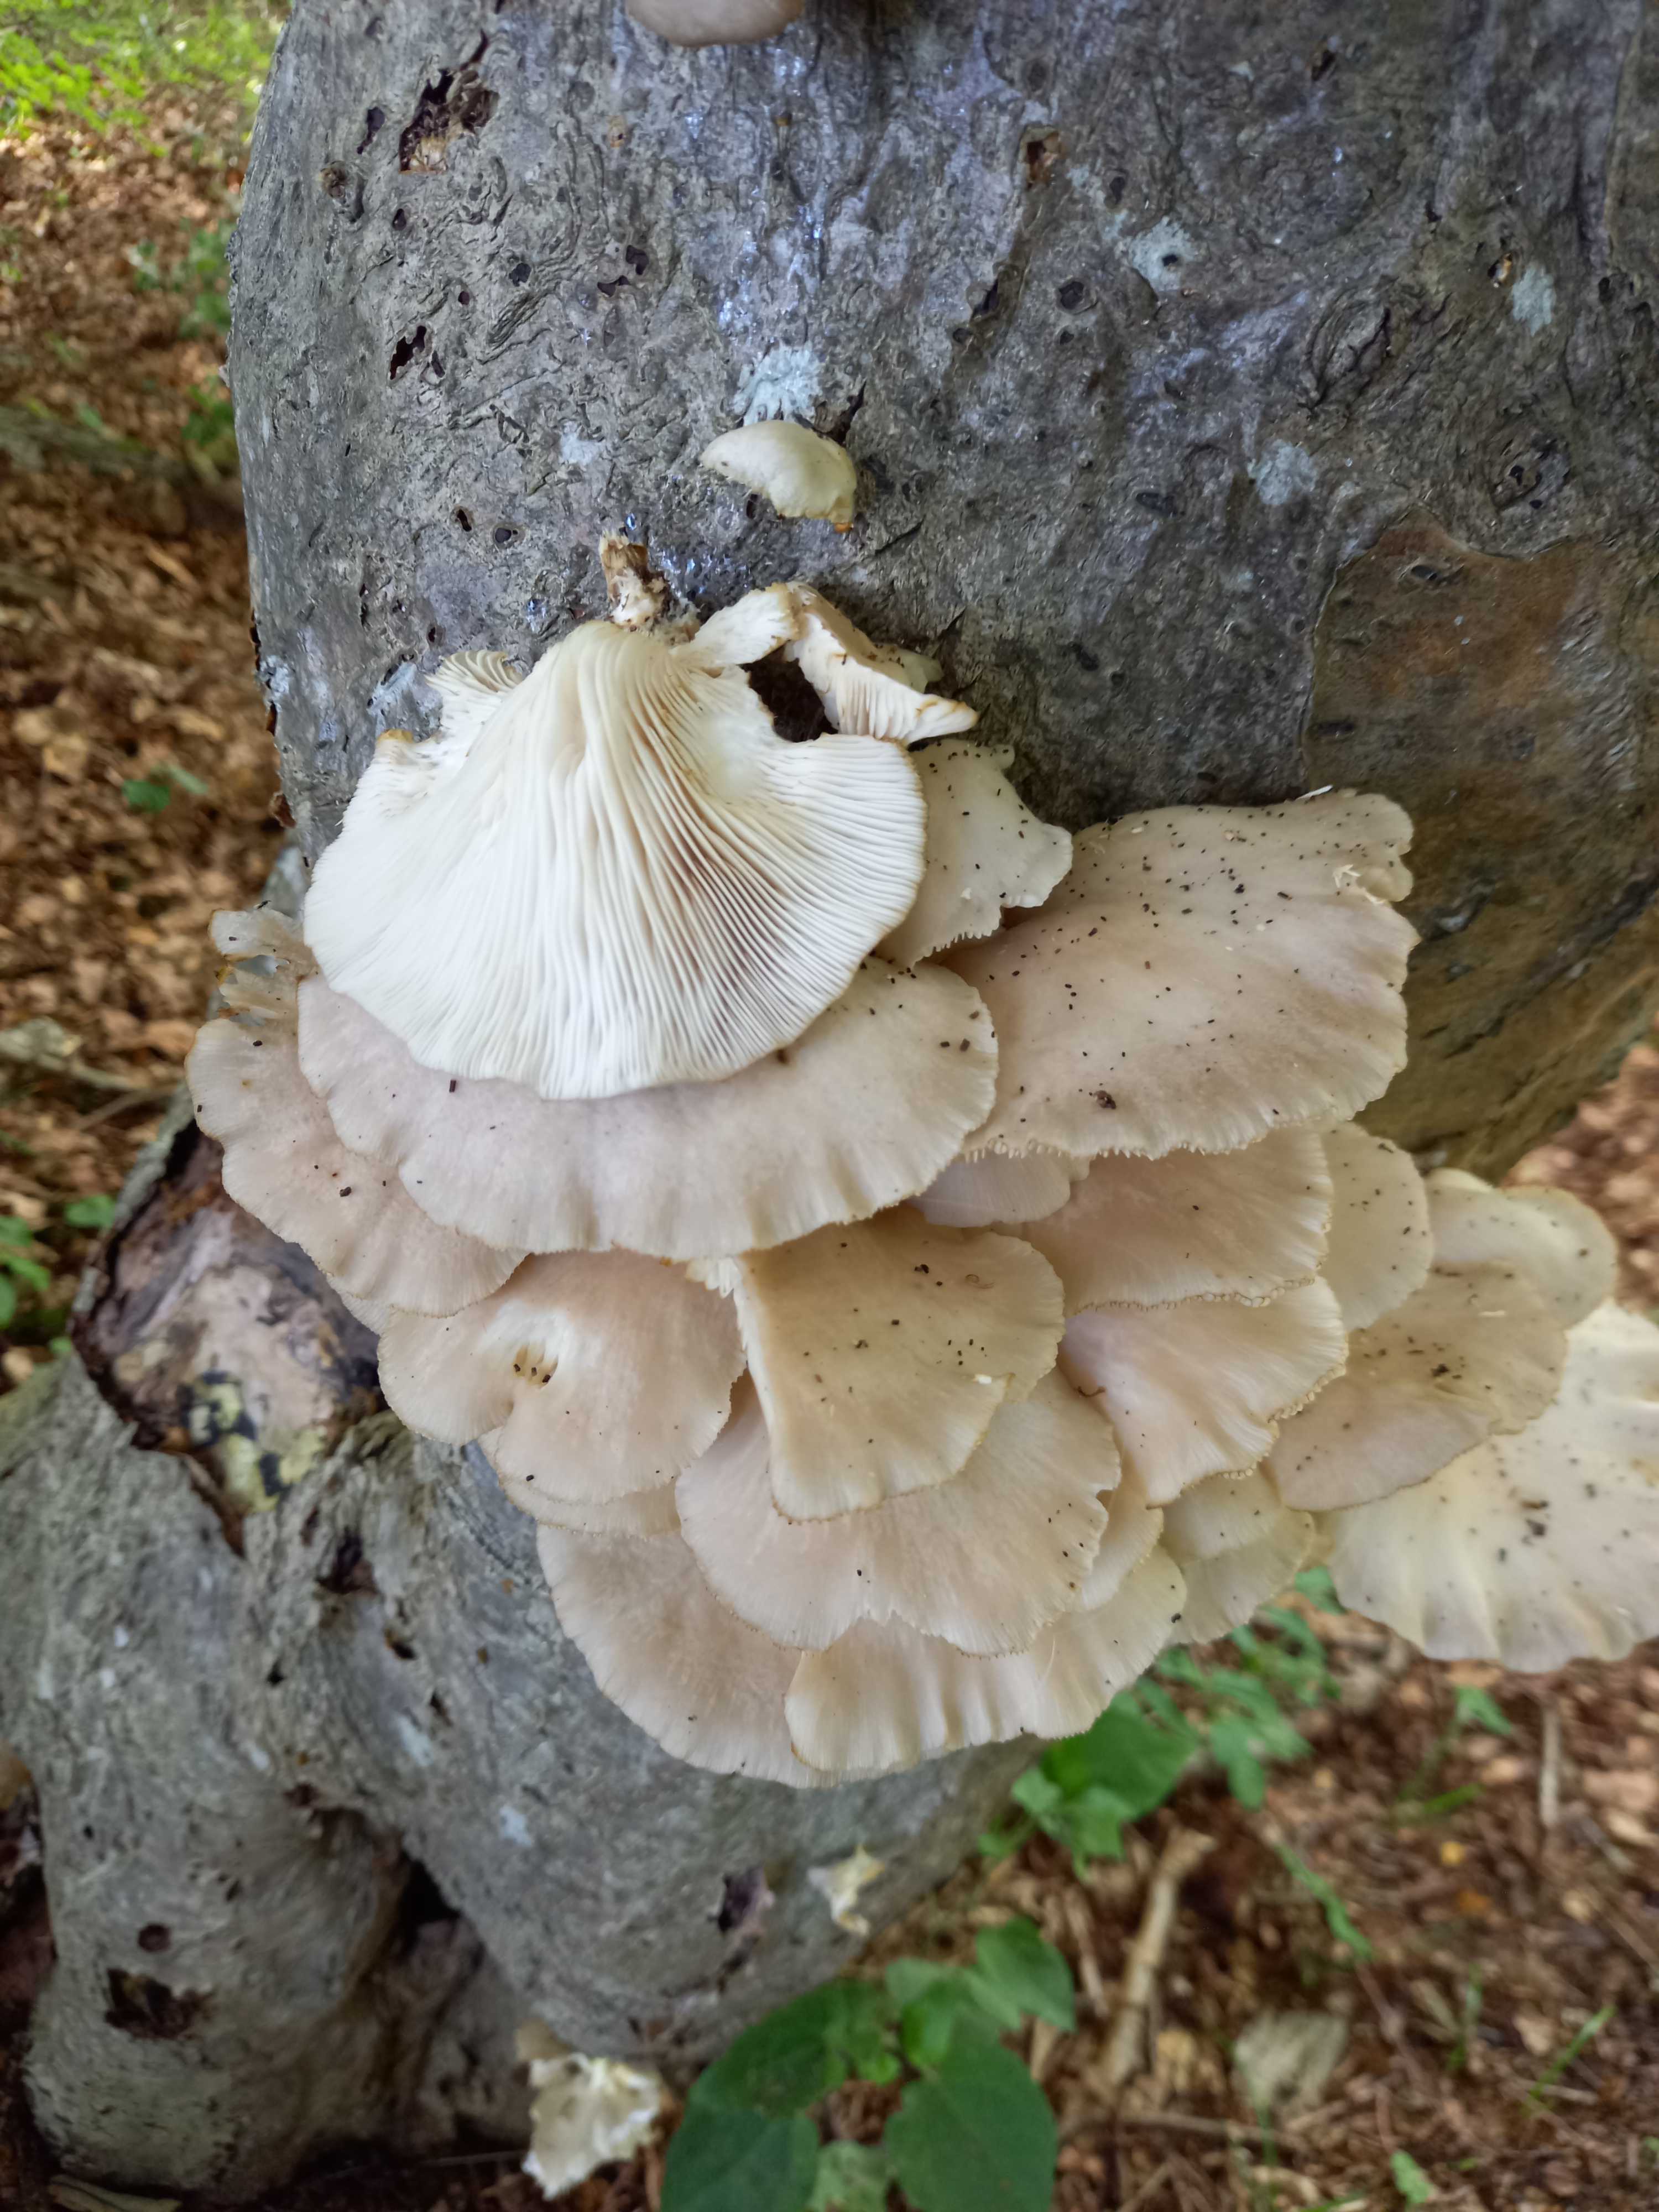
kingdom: Fungi
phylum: Basidiomycota
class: Agaricomycetes
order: Agaricales
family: Pleurotaceae
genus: Pleurotus
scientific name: Pleurotus pulmonarius
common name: sommer-østershat
